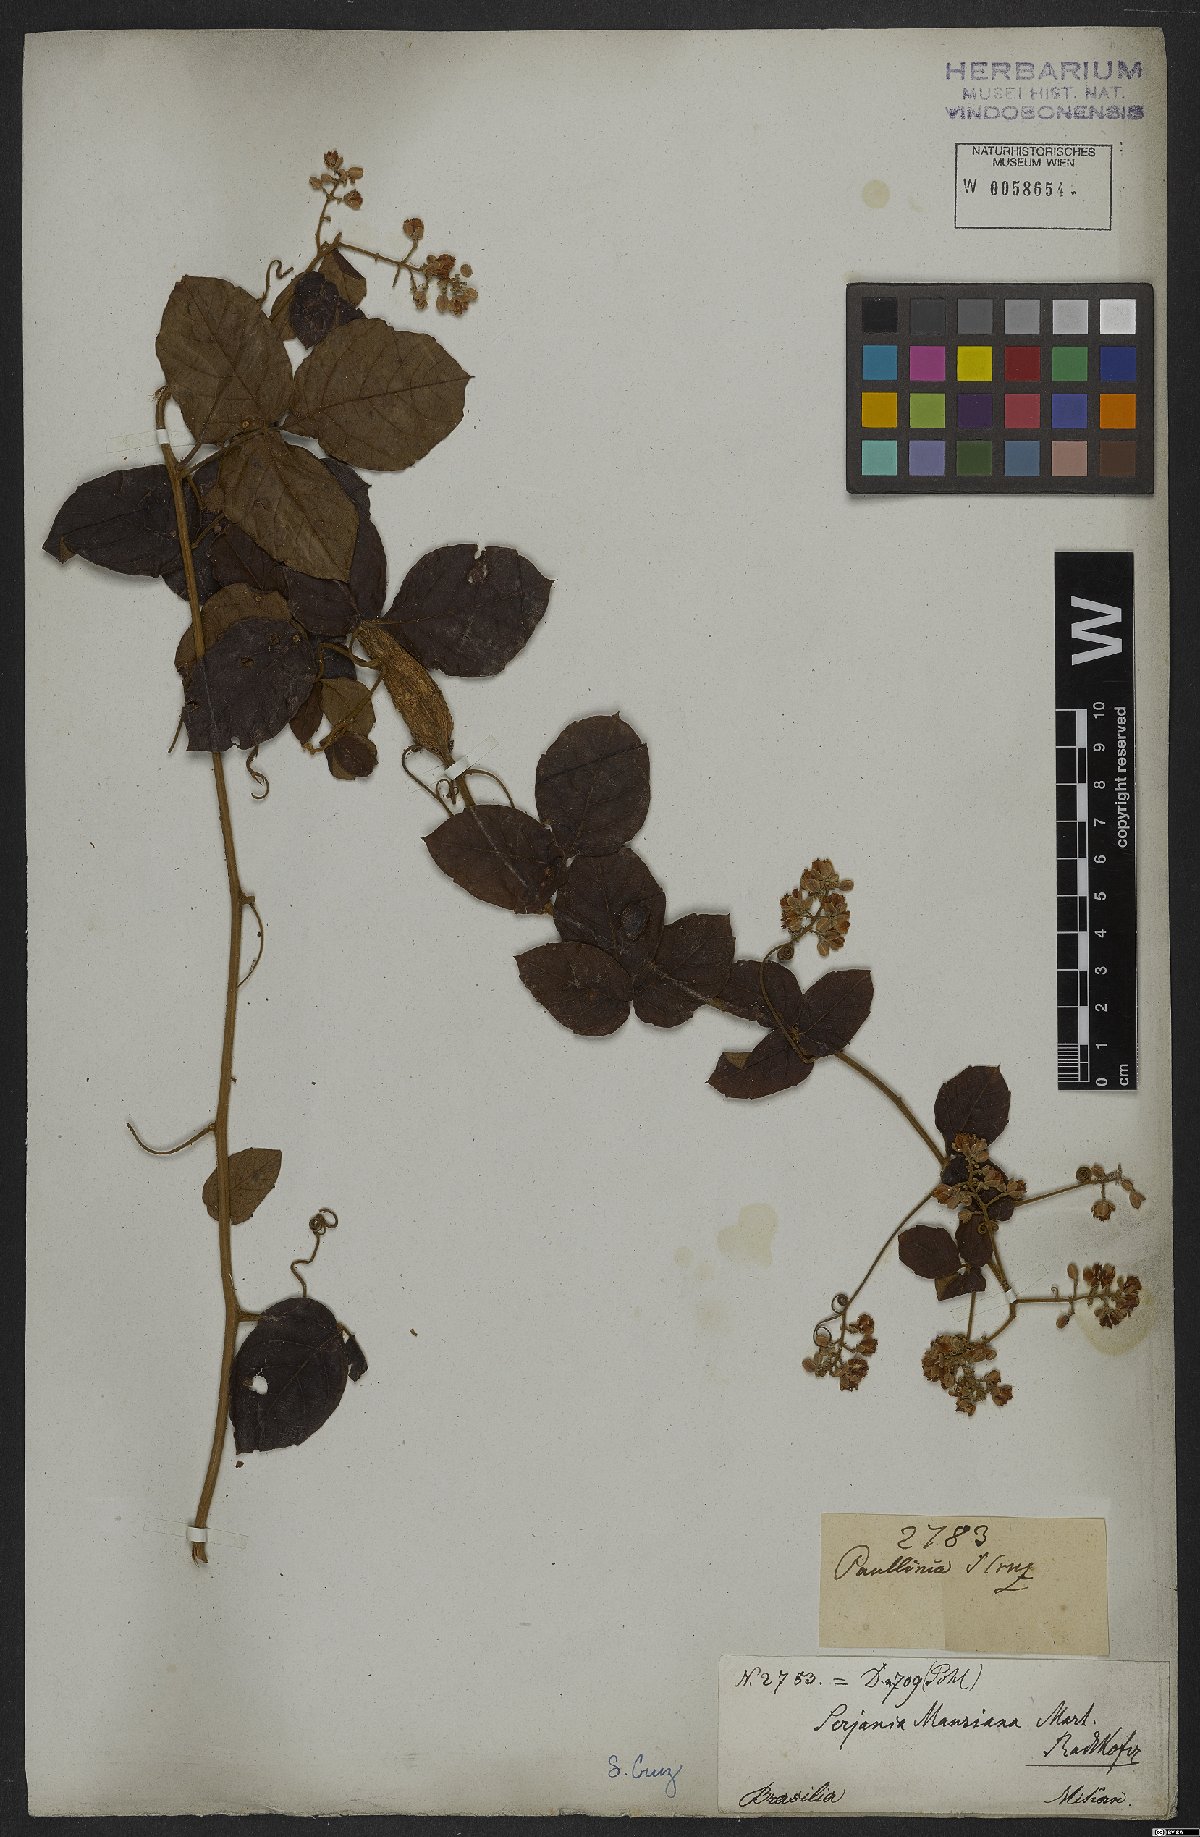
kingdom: Plantae
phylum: Tracheophyta
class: Magnoliopsida
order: Sapindales
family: Sapindaceae
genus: Serjania
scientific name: Serjania mansiana
